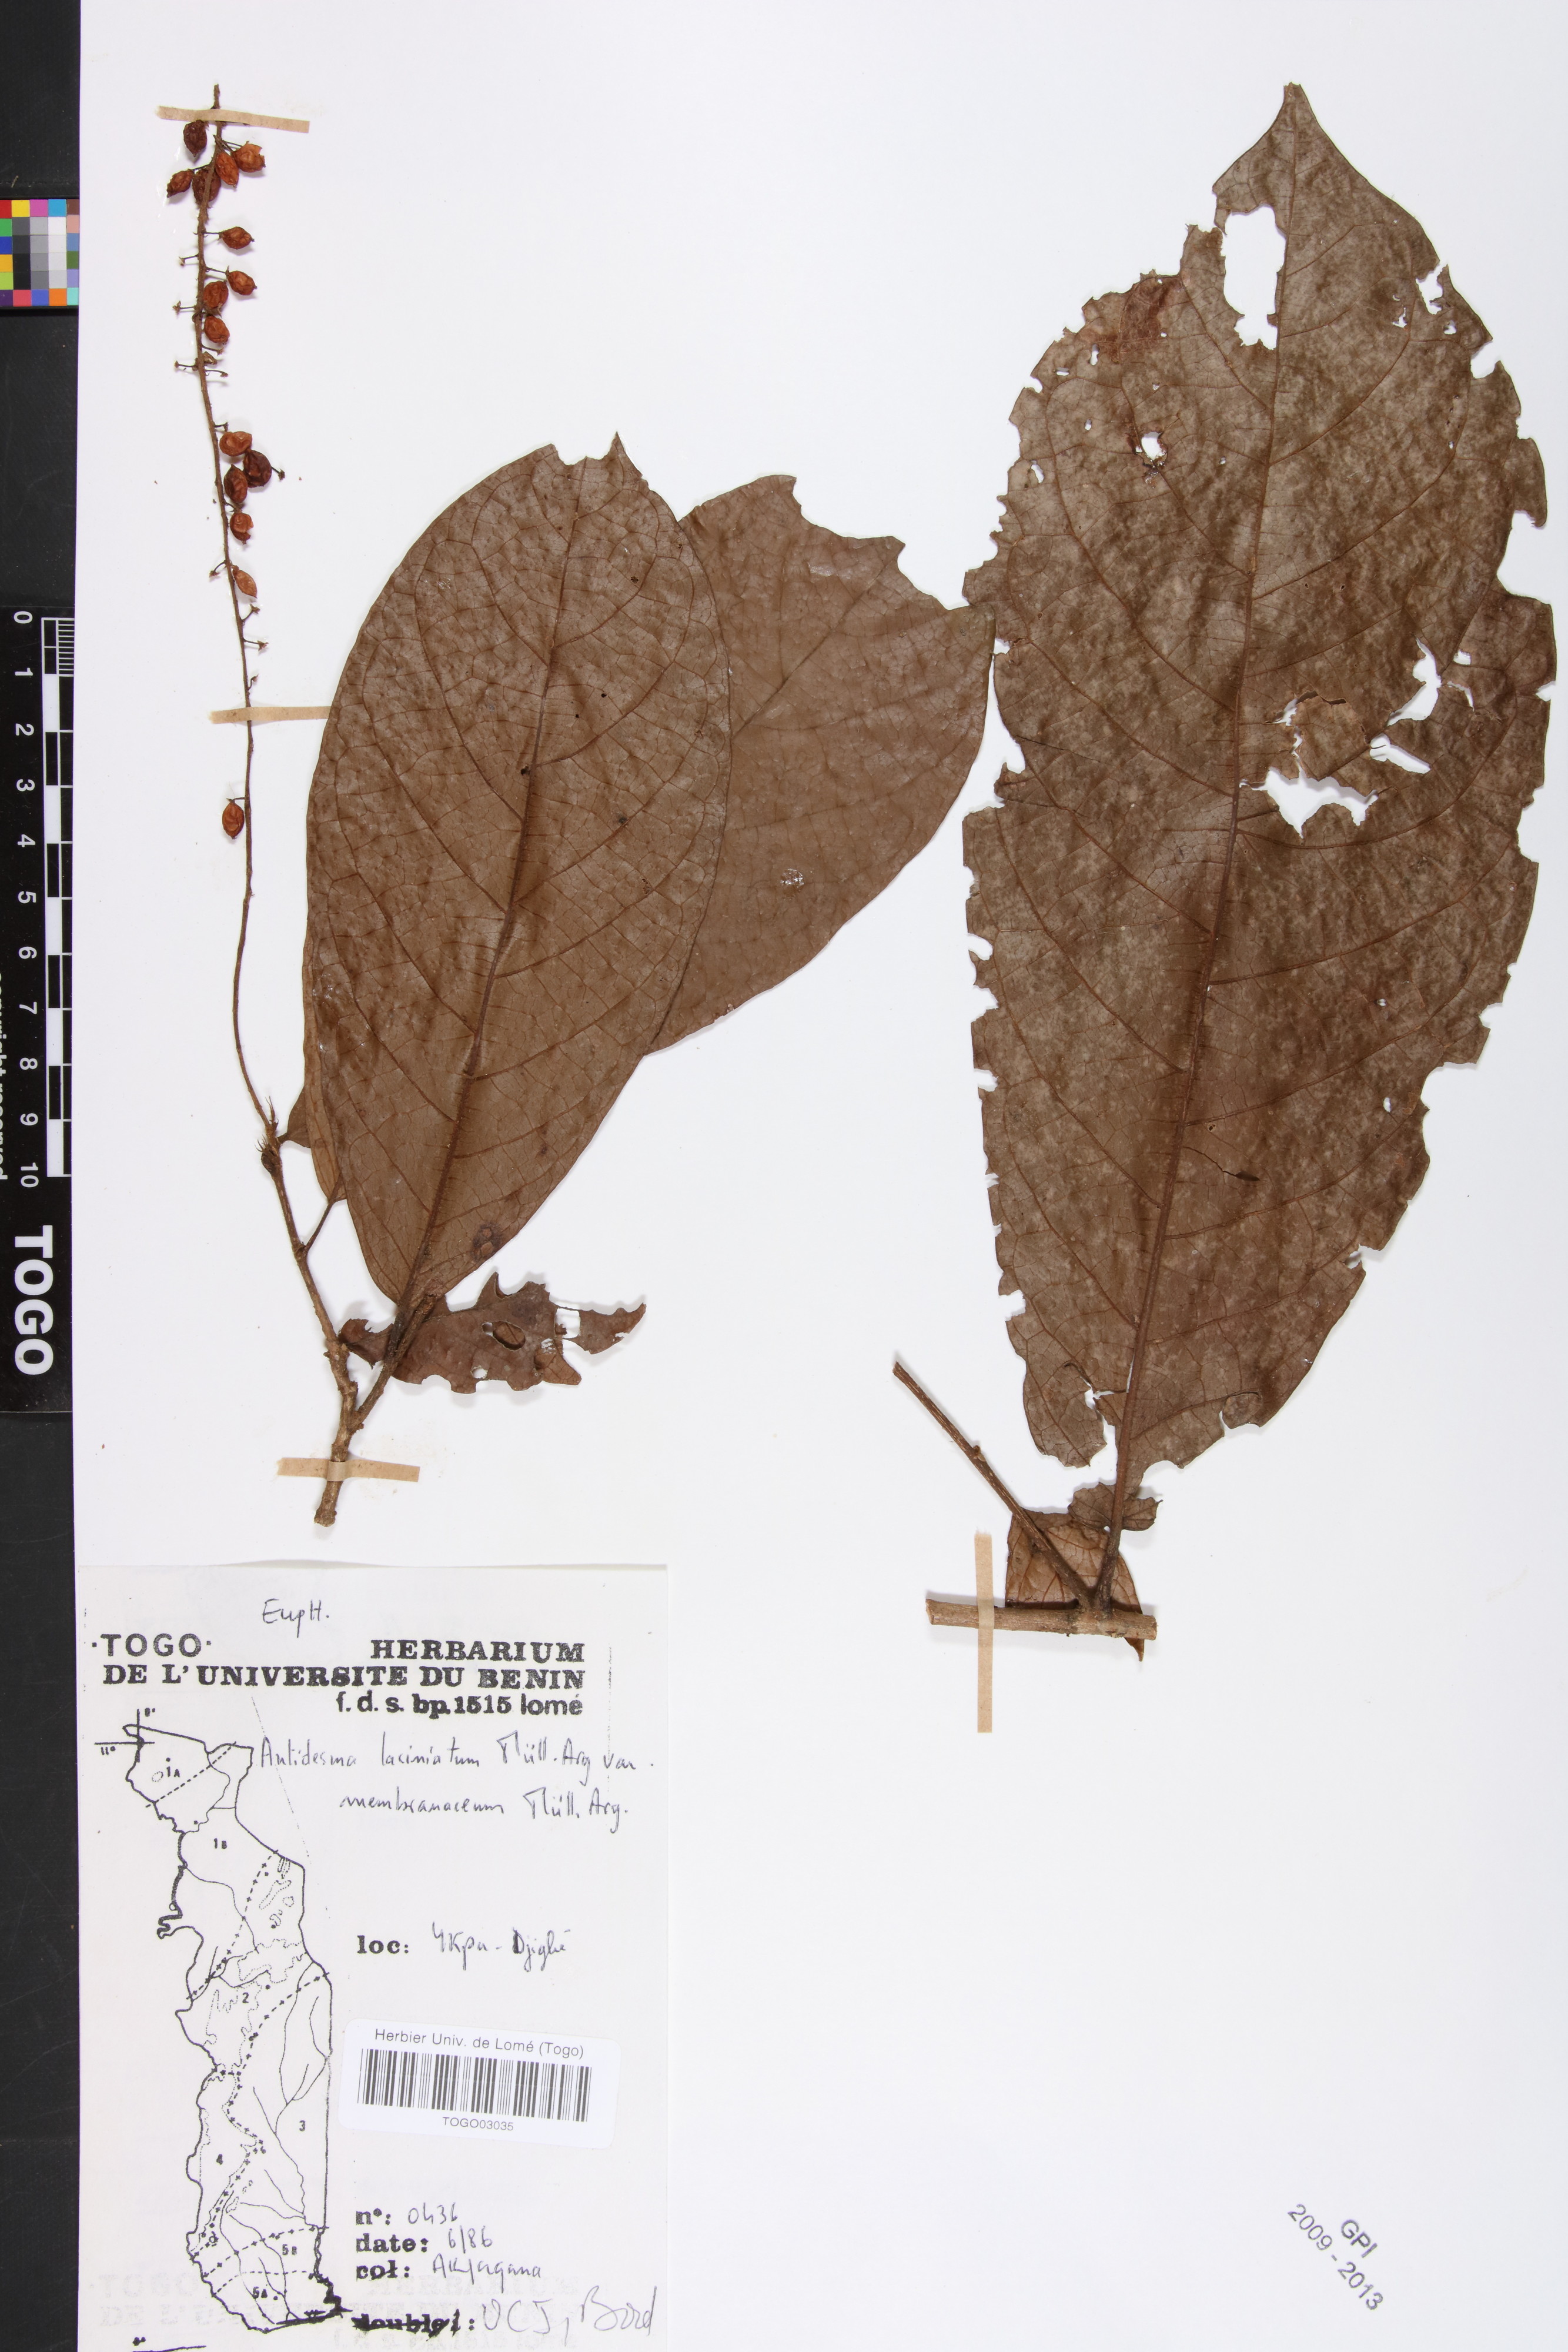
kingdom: Plantae
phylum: Tracheophyta
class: Magnoliopsida
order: Malpighiales
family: Phyllanthaceae
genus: Antidesma
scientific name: Antidesma laciniatum
